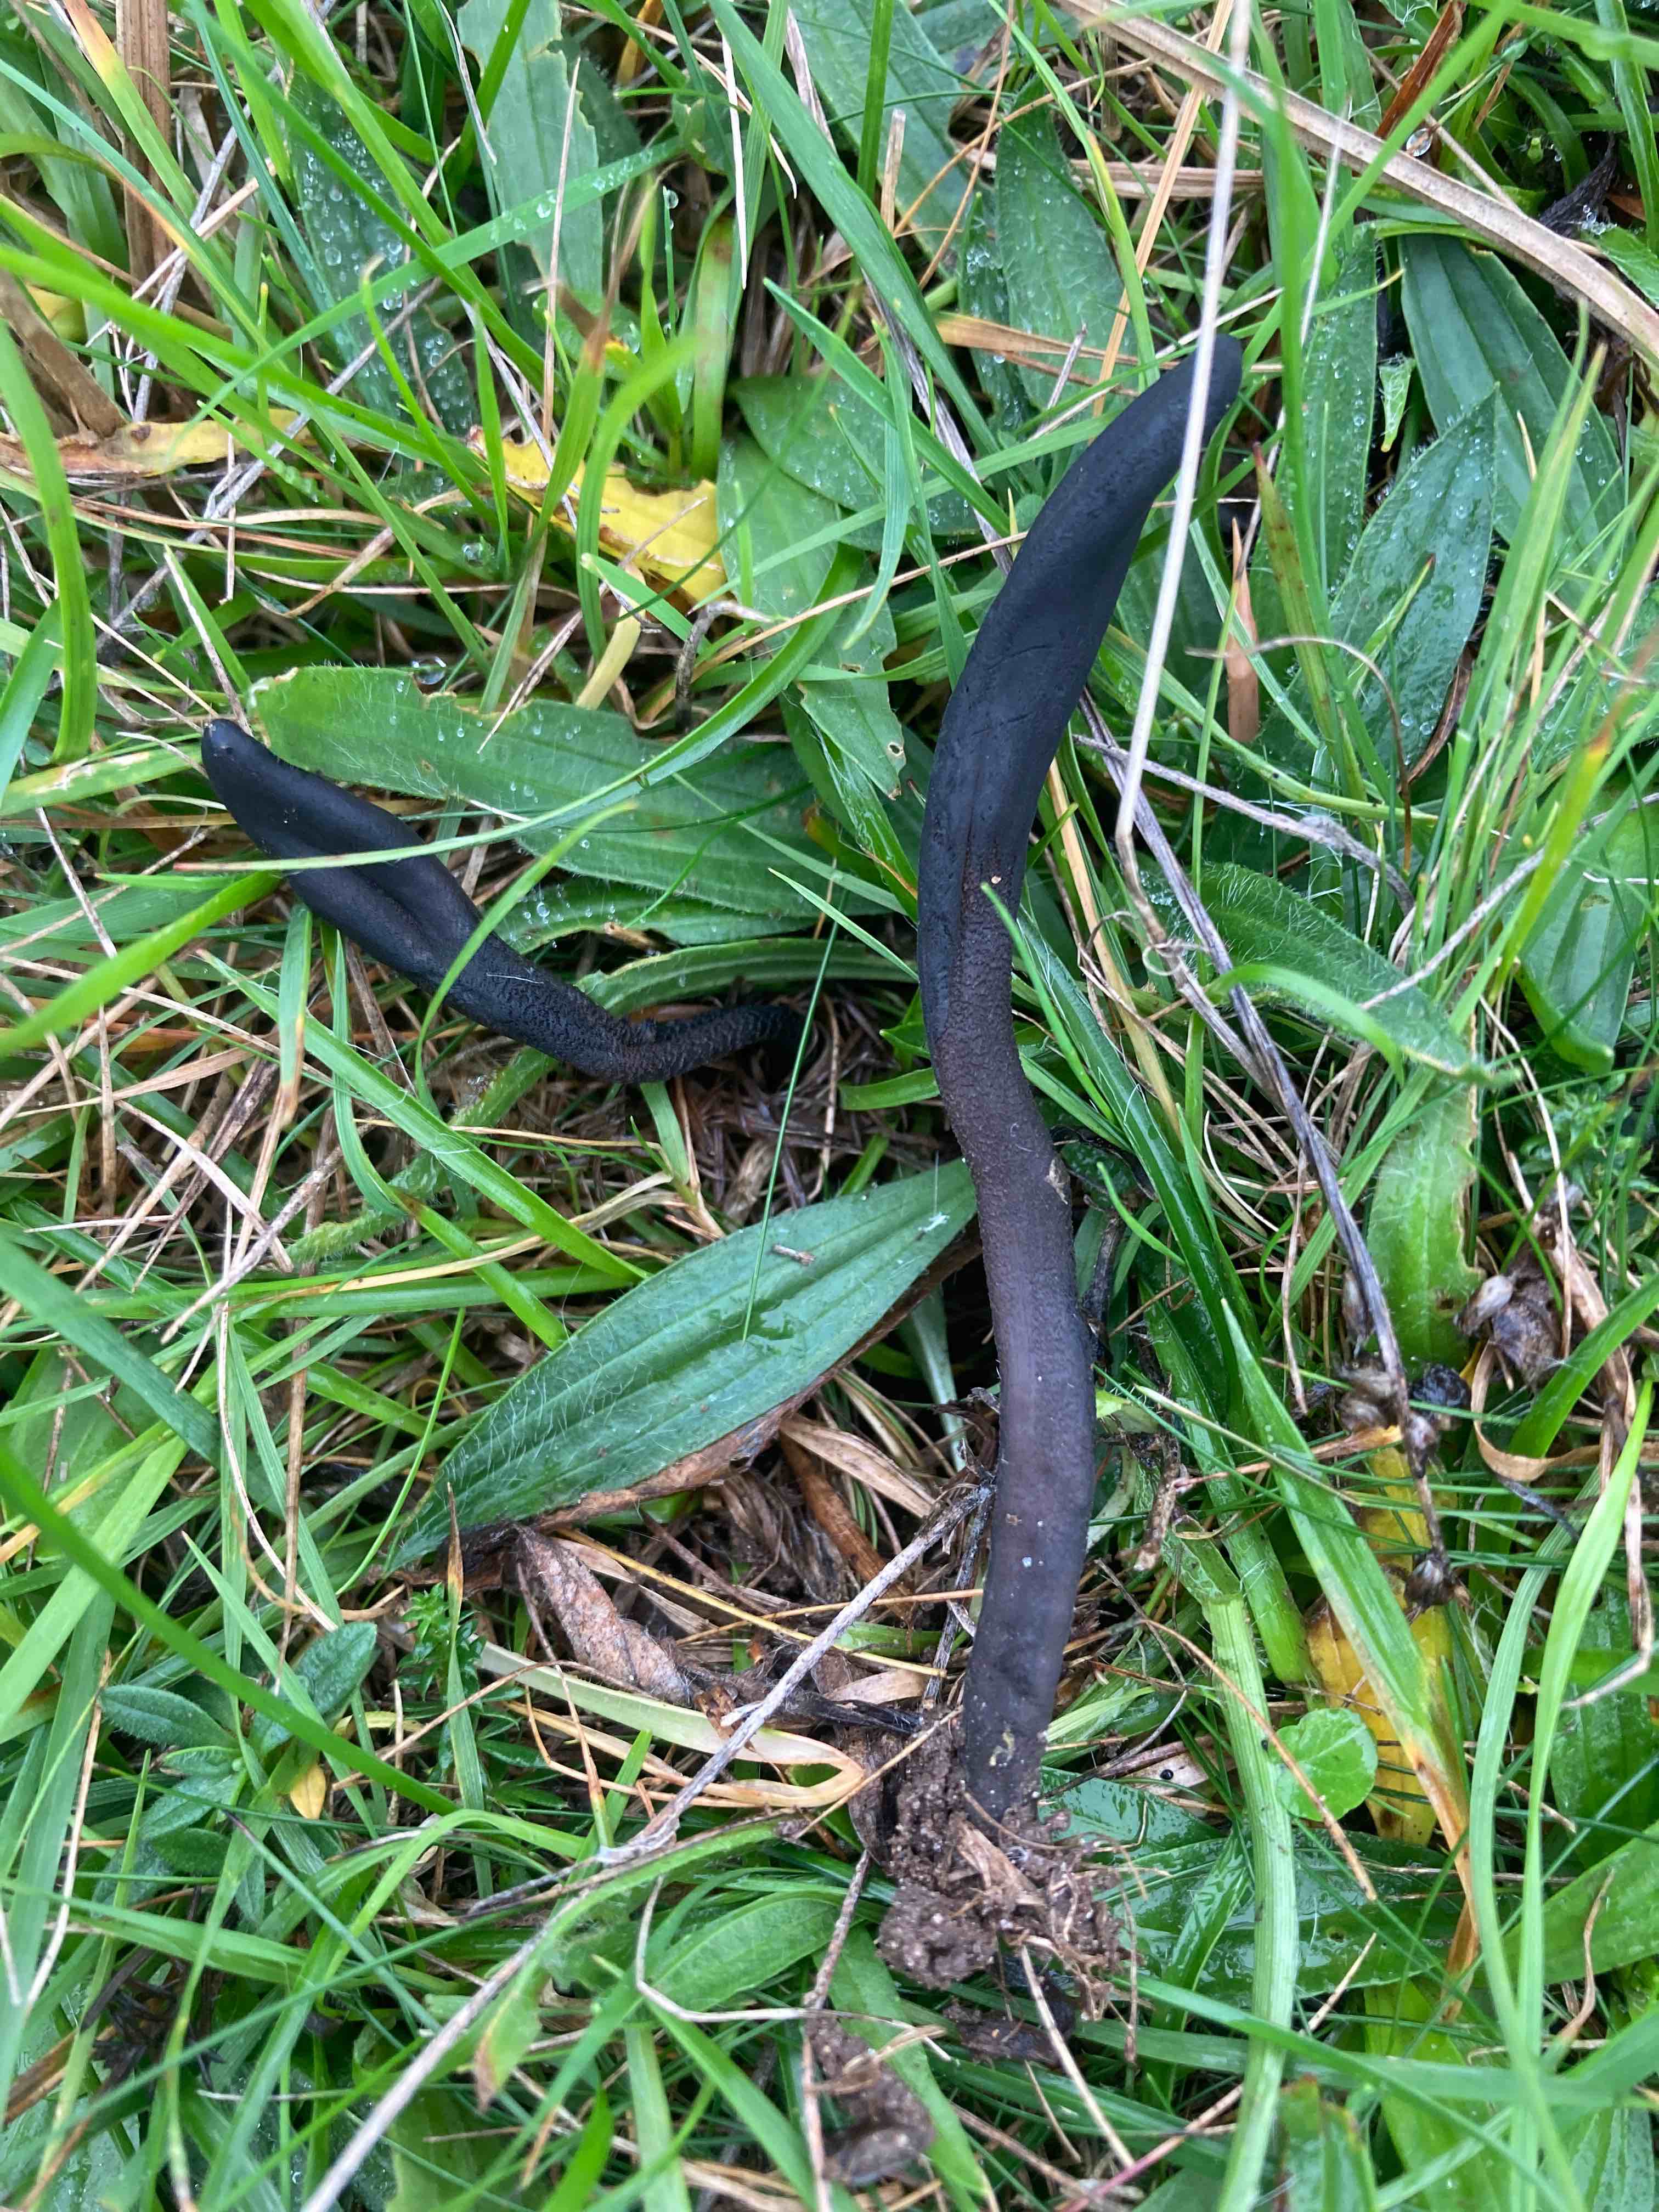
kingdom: Fungi
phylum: Ascomycota
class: Geoglossomycetes
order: Geoglossales
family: Geoglossaceae
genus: Geoglossum
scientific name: Geoglossum fallax
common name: småskællet jordtunge
